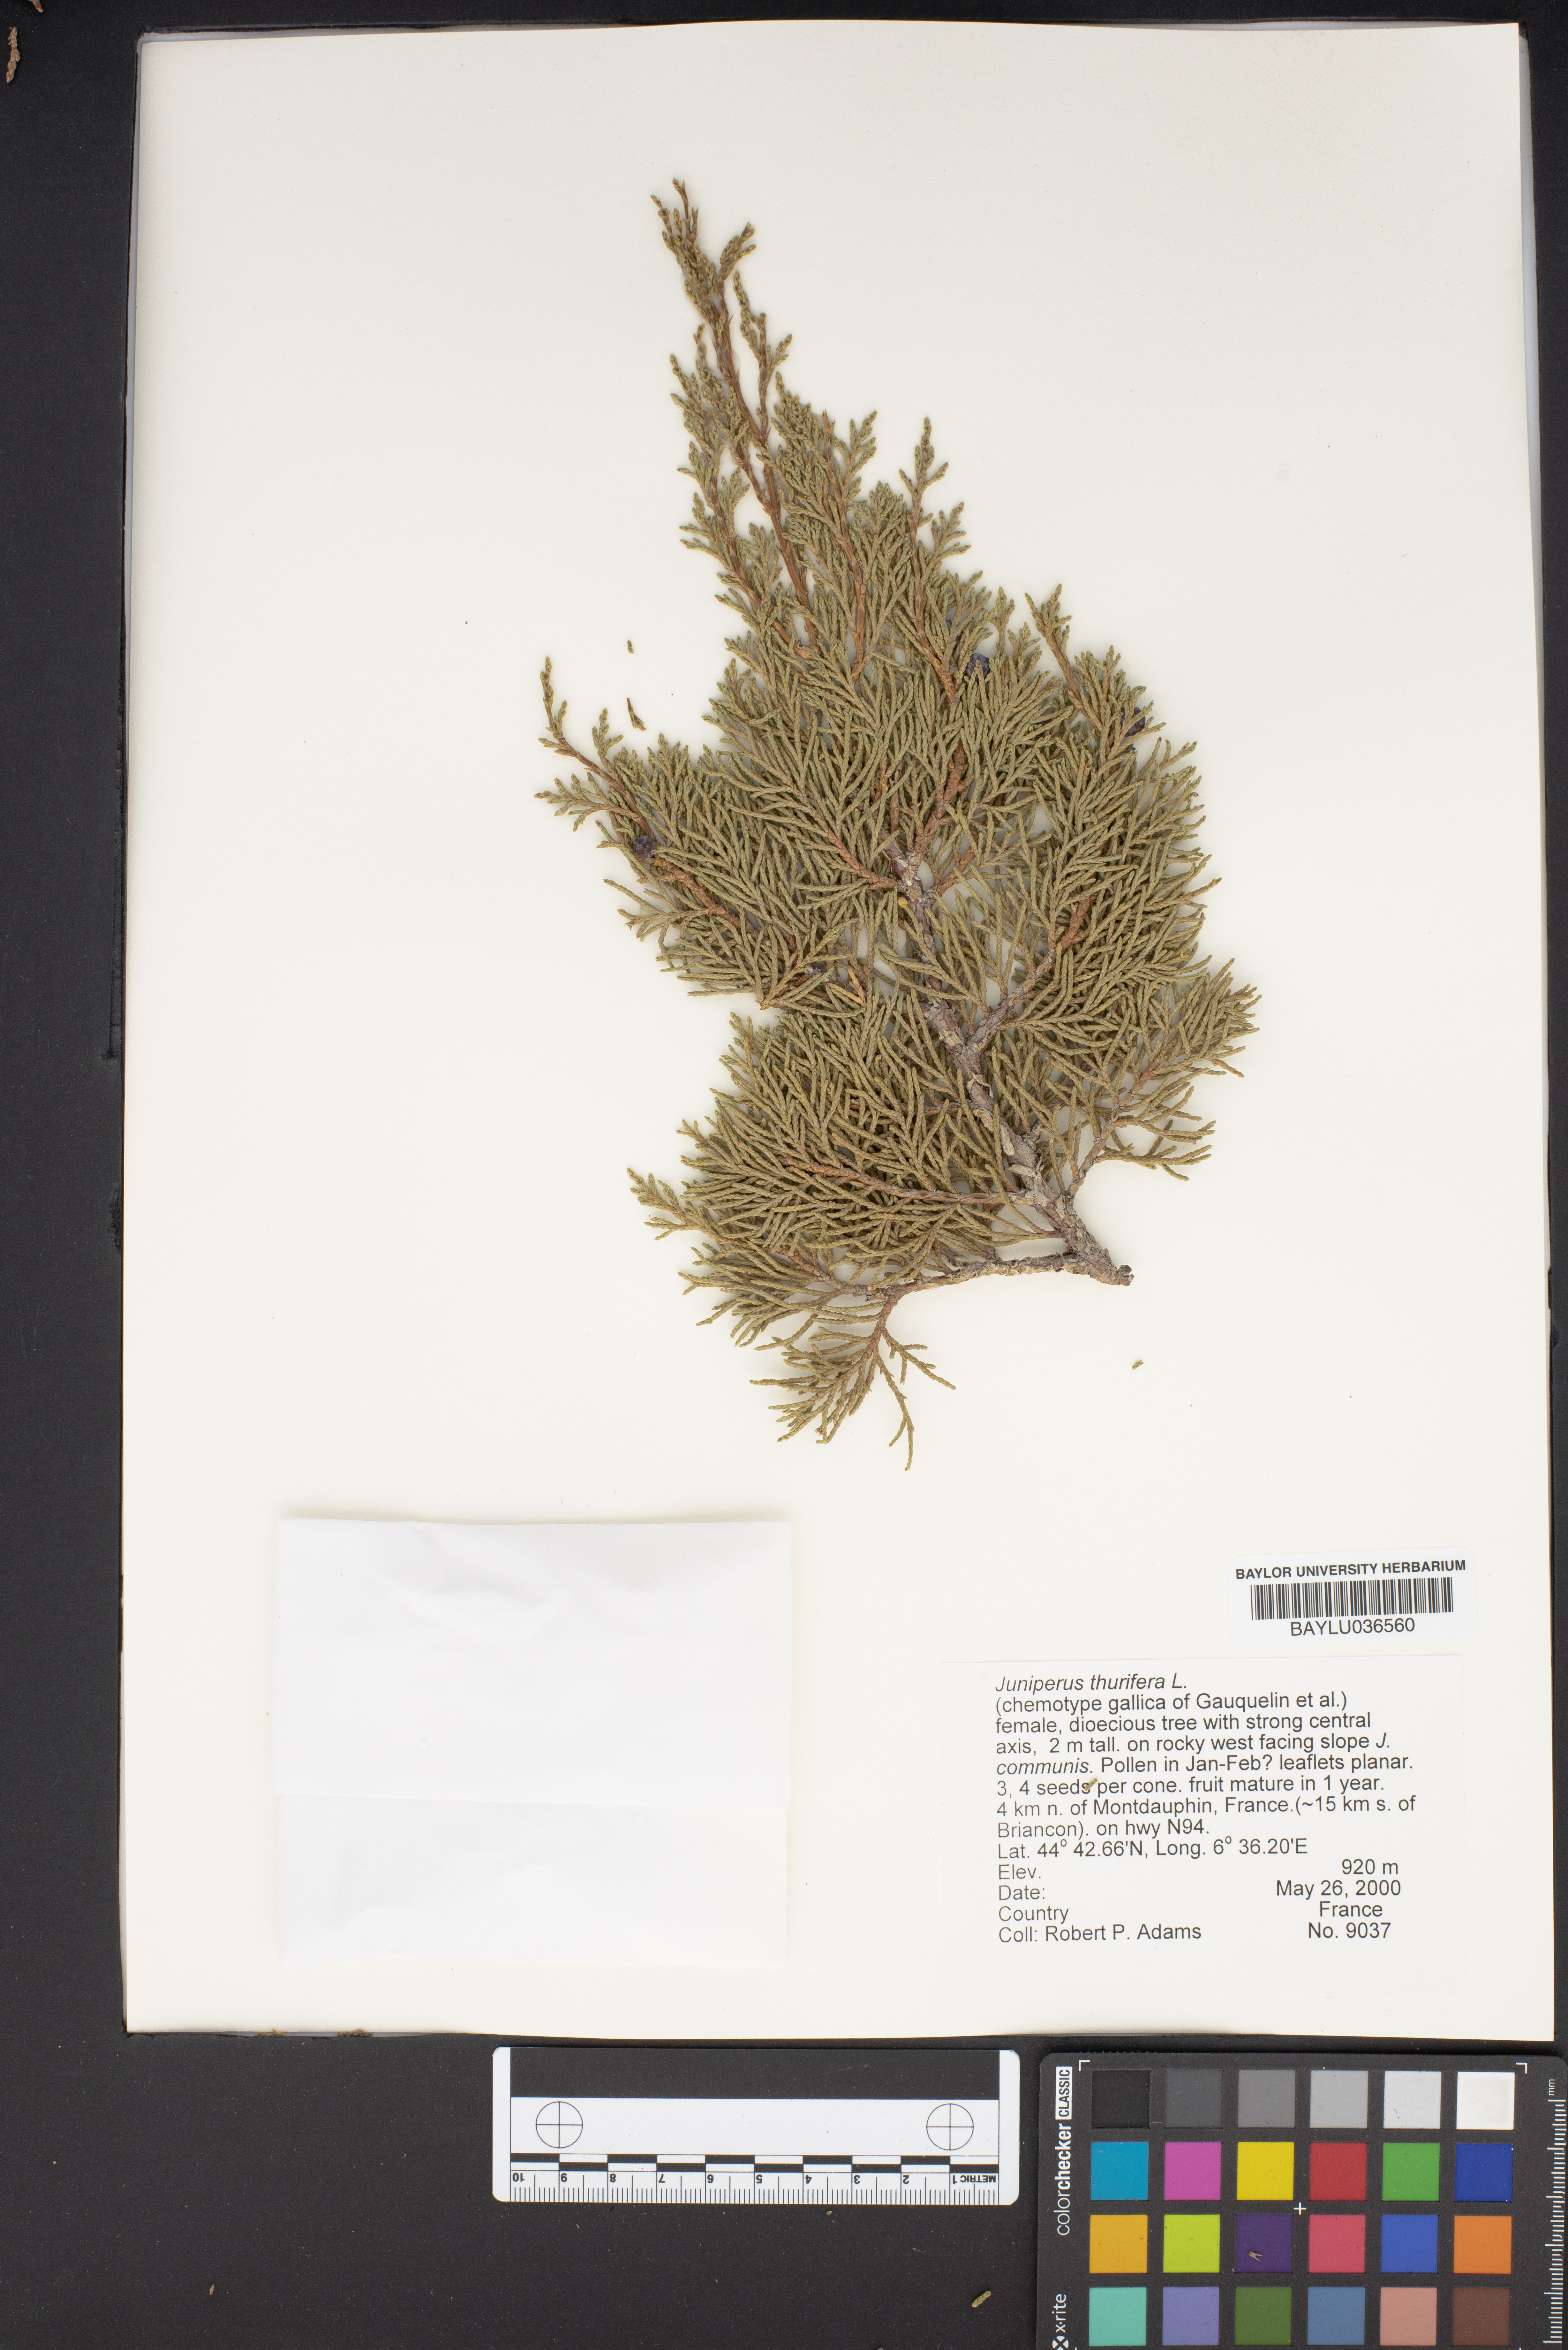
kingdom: Plantae
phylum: Tracheophyta
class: Pinopsida
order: Pinales
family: Cupressaceae
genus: Juniperus
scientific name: Juniperus thurifera
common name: Incense juniper
